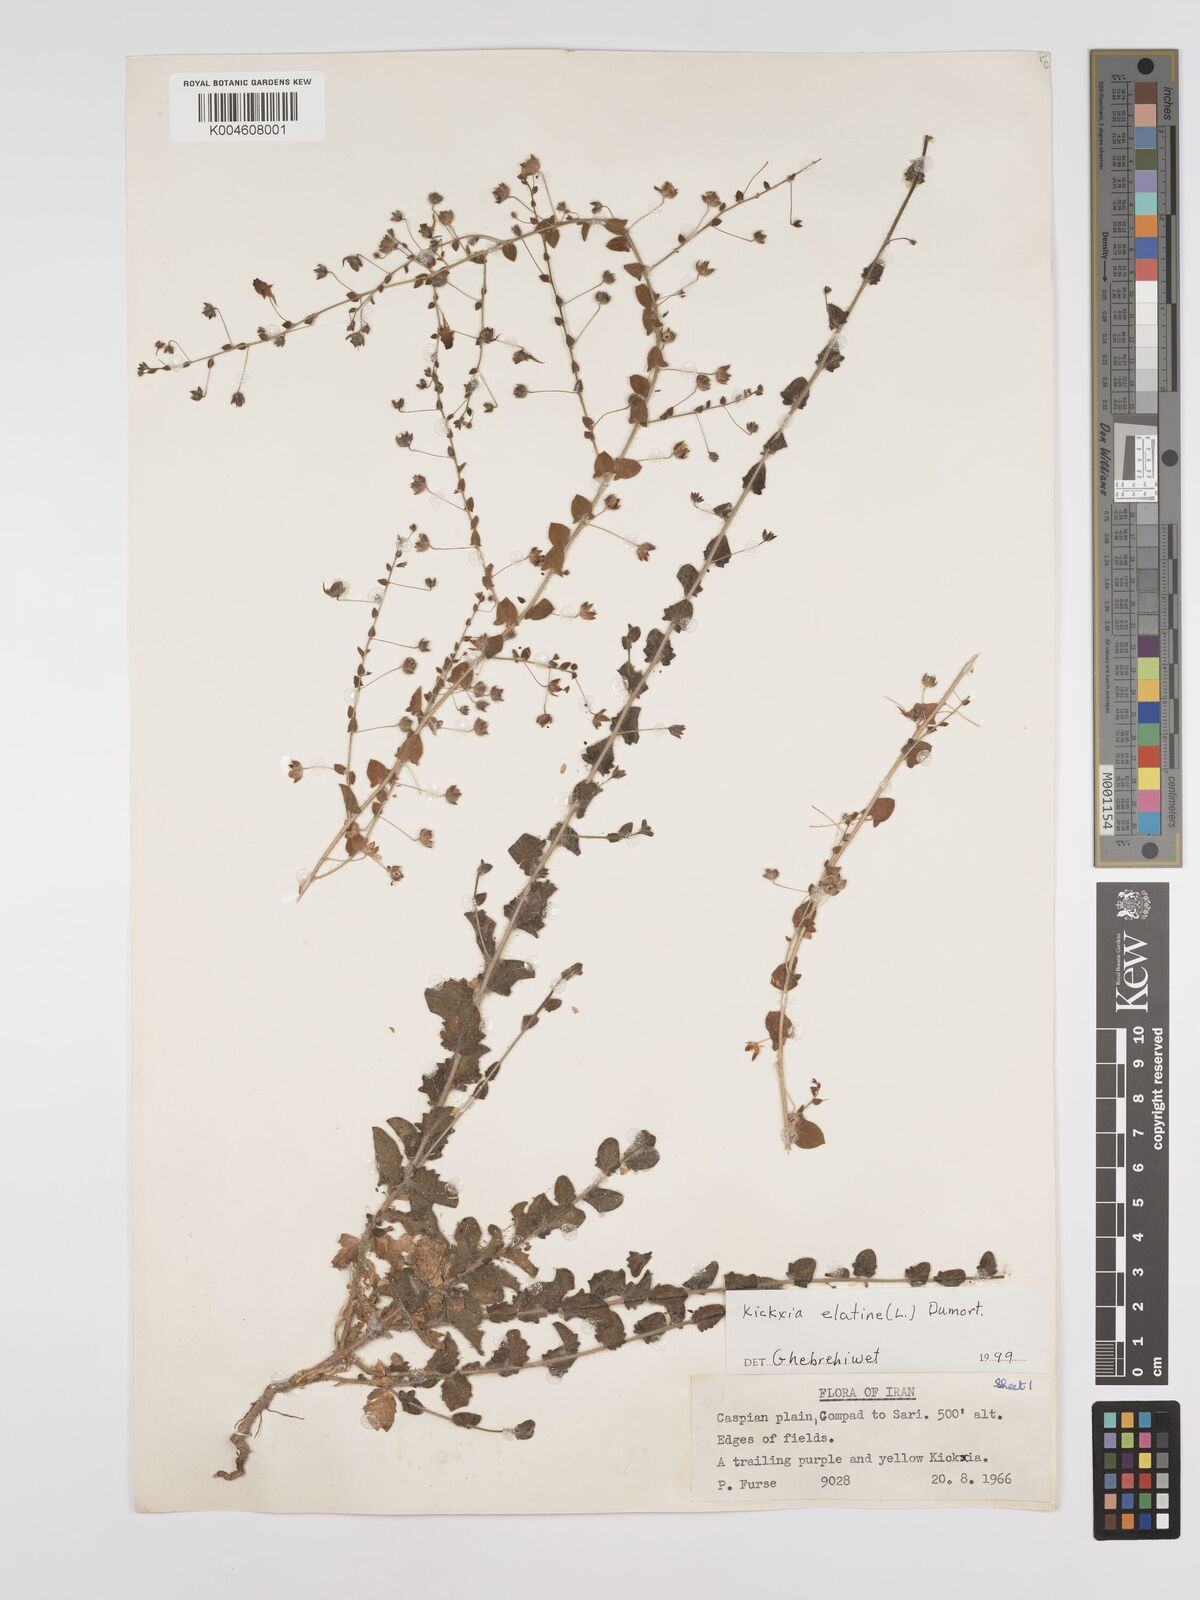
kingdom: Plantae
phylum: Tracheophyta
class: Magnoliopsida
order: Lamiales
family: Plantaginaceae
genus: Kickxia
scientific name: Kickxia elatine
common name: Sharp-leaved fluellen
